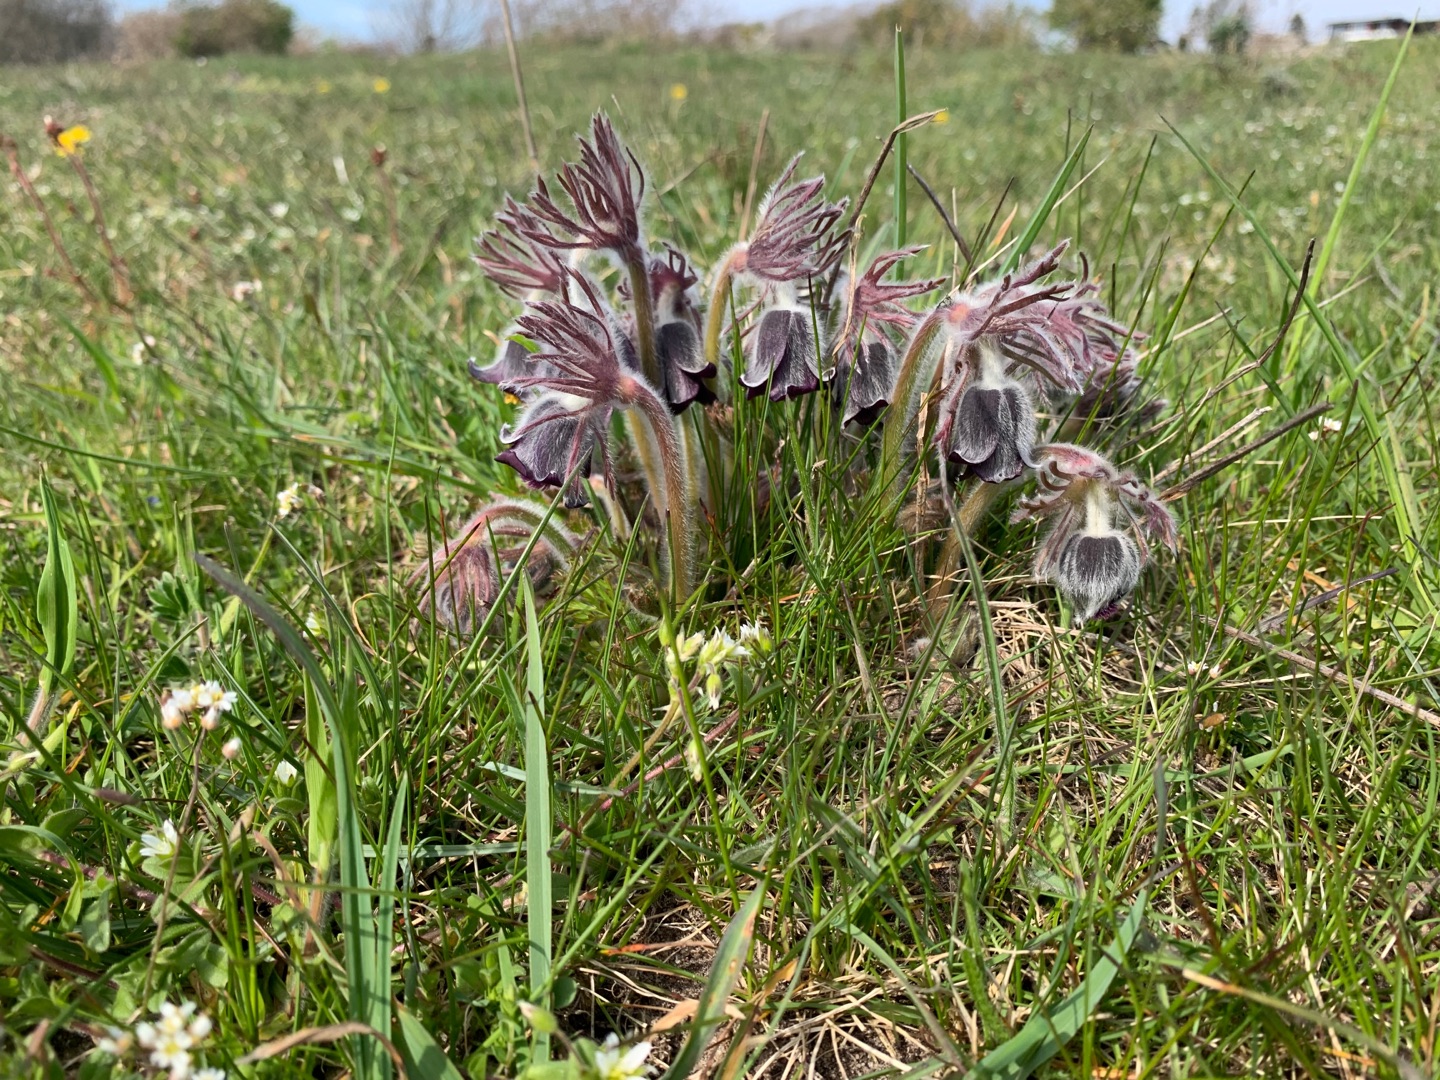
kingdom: Plantae
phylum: Tracheophyta
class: Magnoliopsida
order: Ranunculales
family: Ranunculaceae
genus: Pulsatilla
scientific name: Pulsatilla pratensis
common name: Nikkende kobjælde
